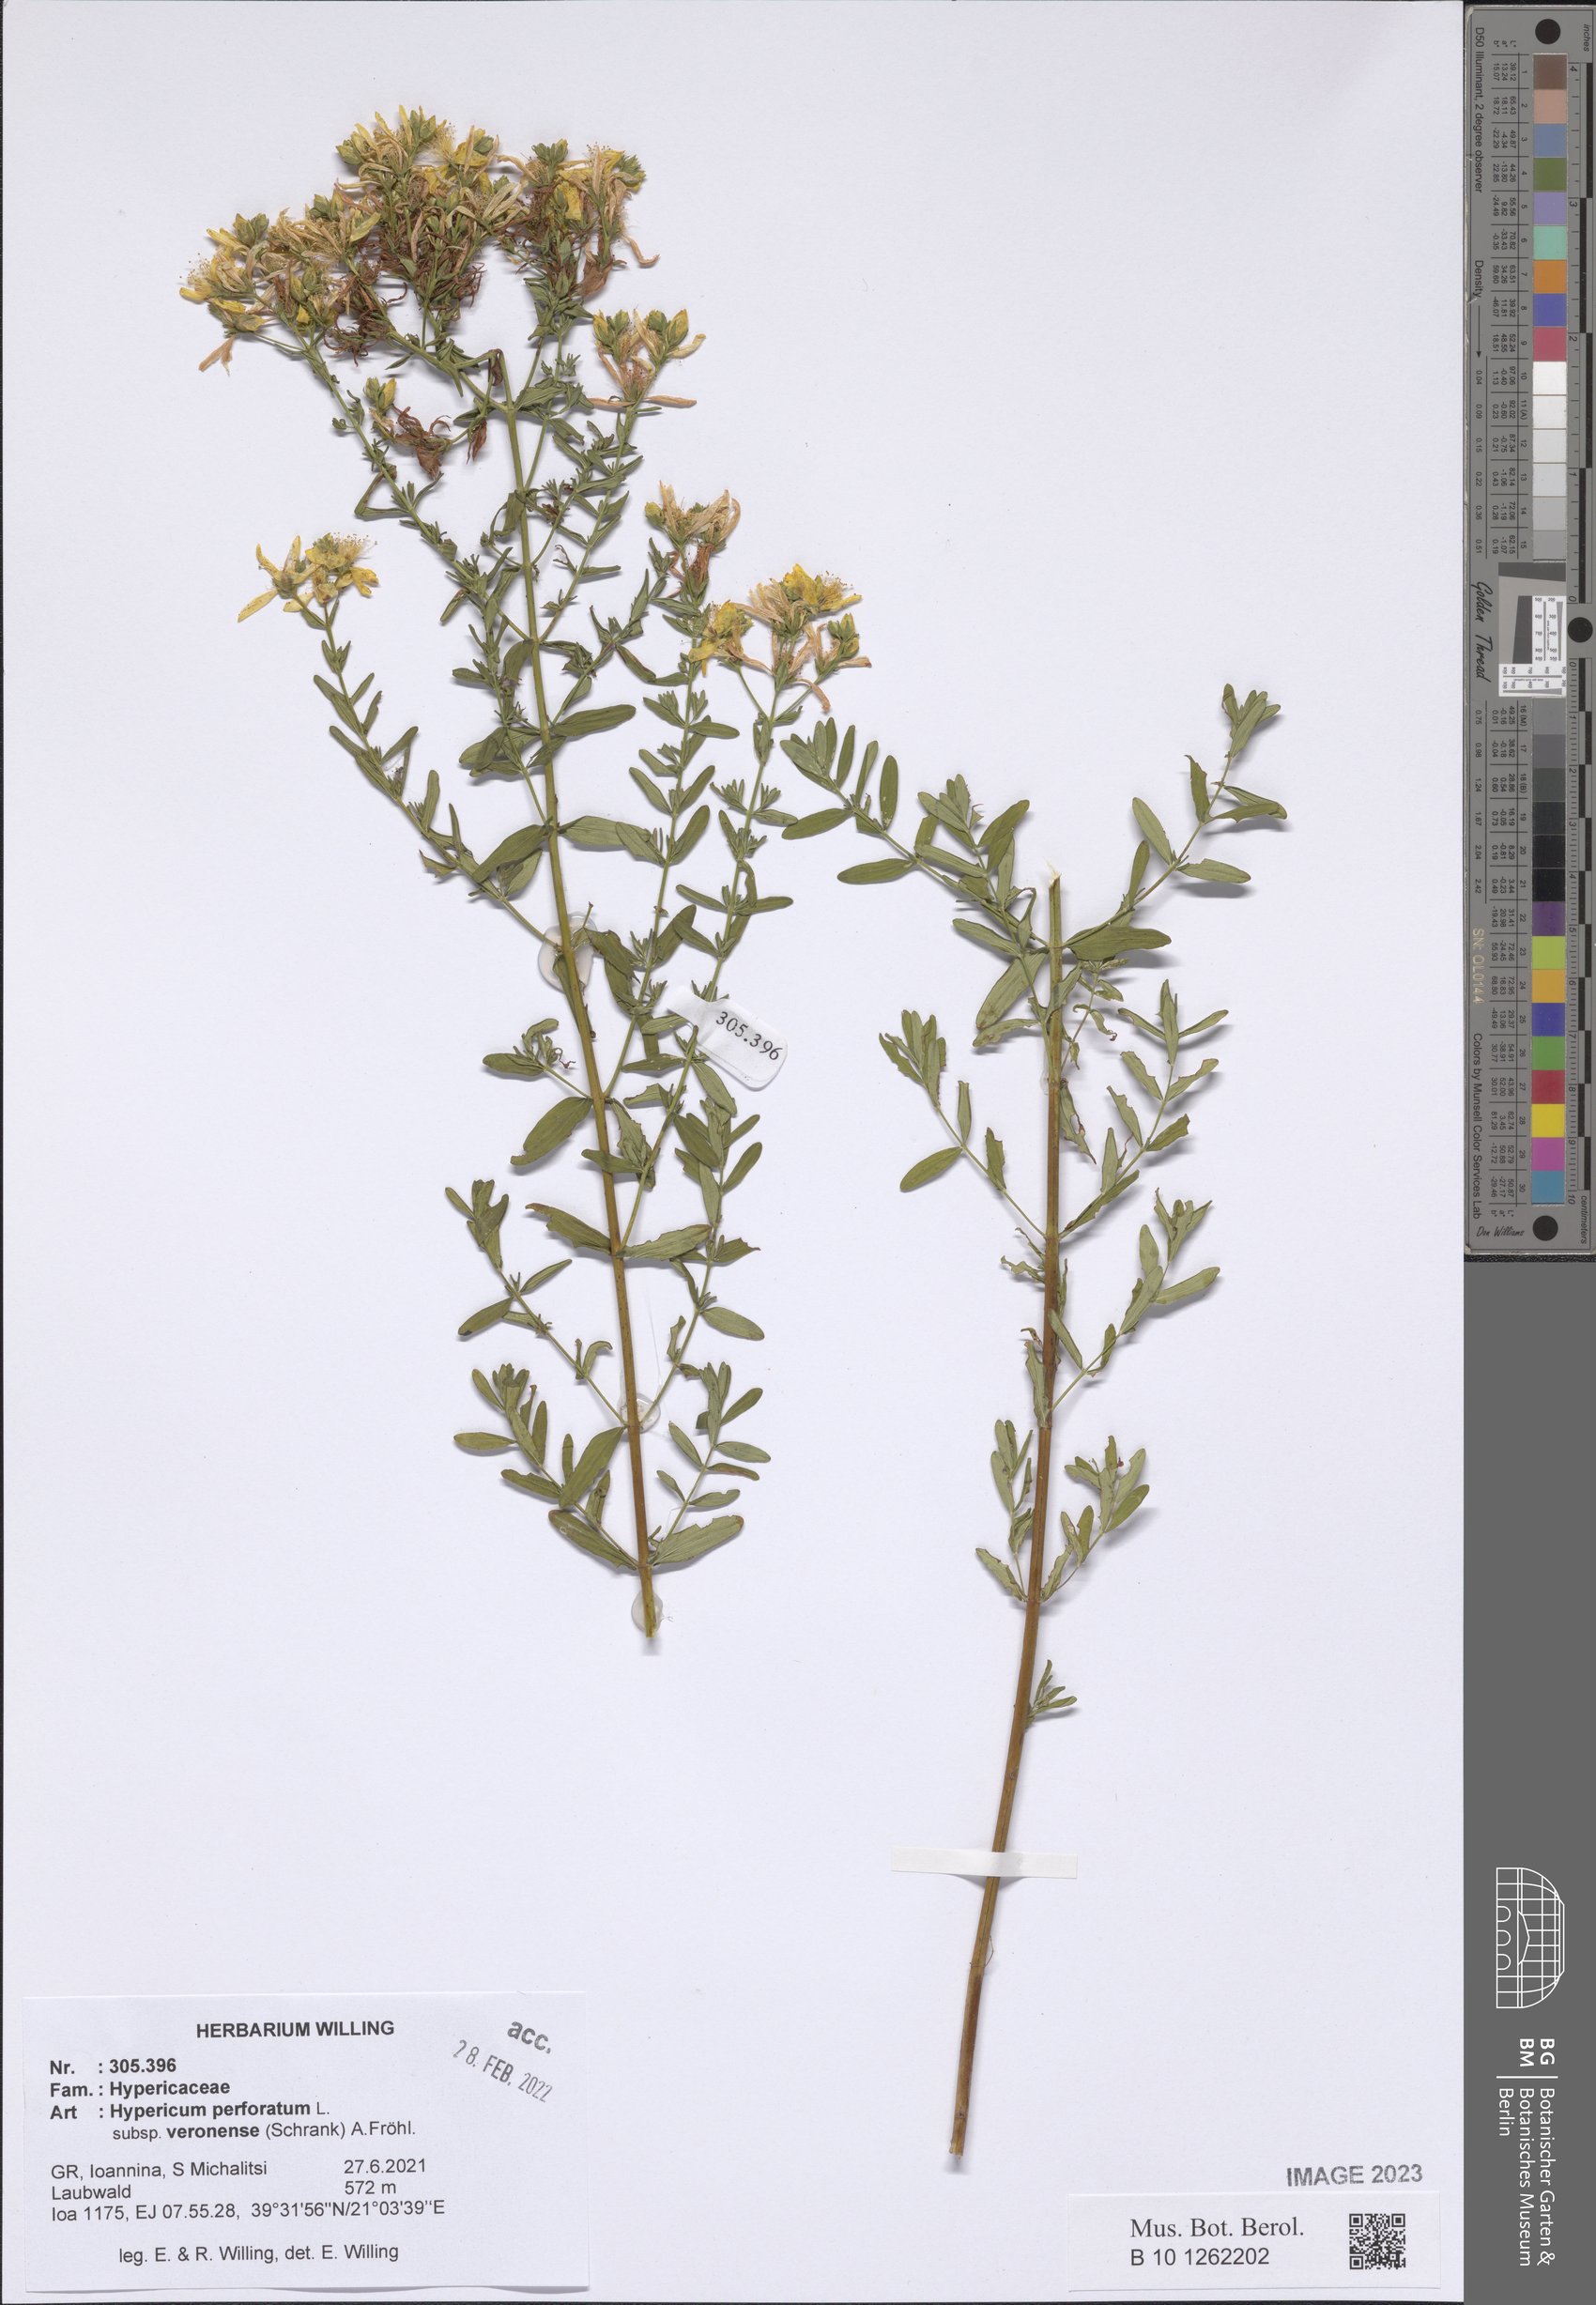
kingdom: Plantae
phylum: Tracheophyta
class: Magnoliopsida
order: Malpighiales
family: Hypericaceae
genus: Hypericum
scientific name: Hypericum veronense
